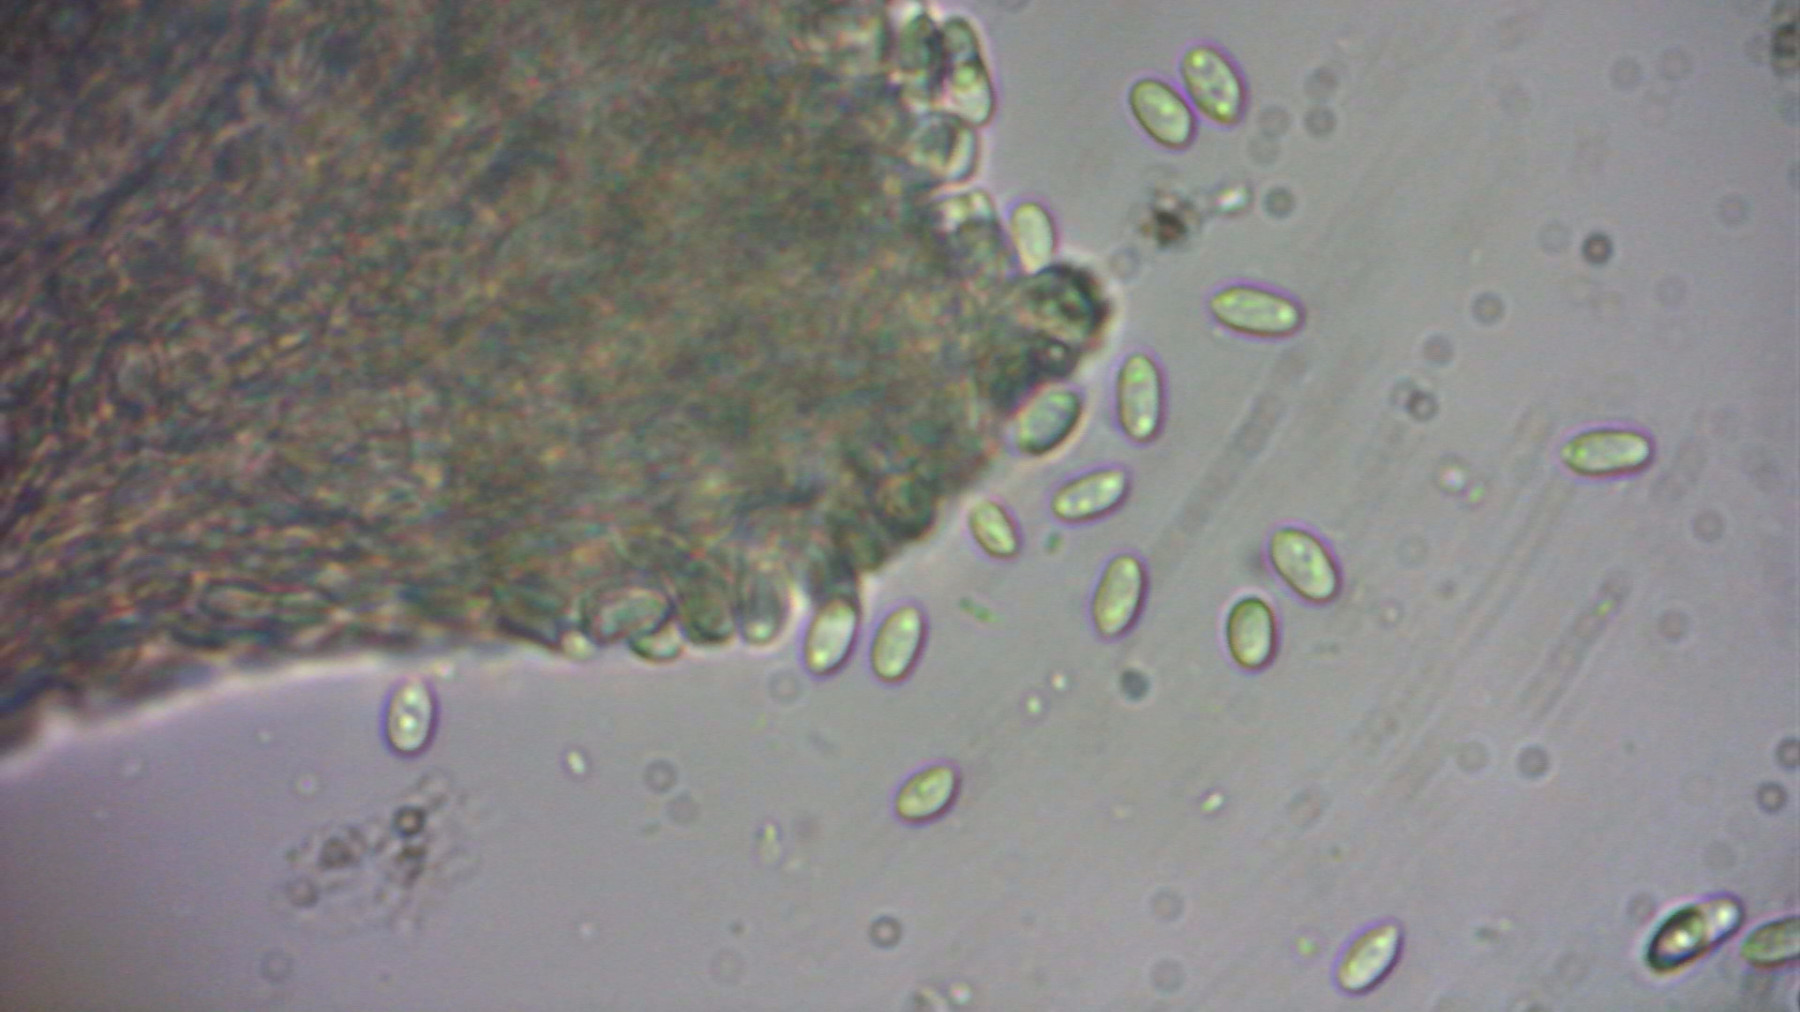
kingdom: Fungi
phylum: Ascomycota
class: Sordariomycetes
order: Hypocreales
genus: Stilbella
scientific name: Stilbella
